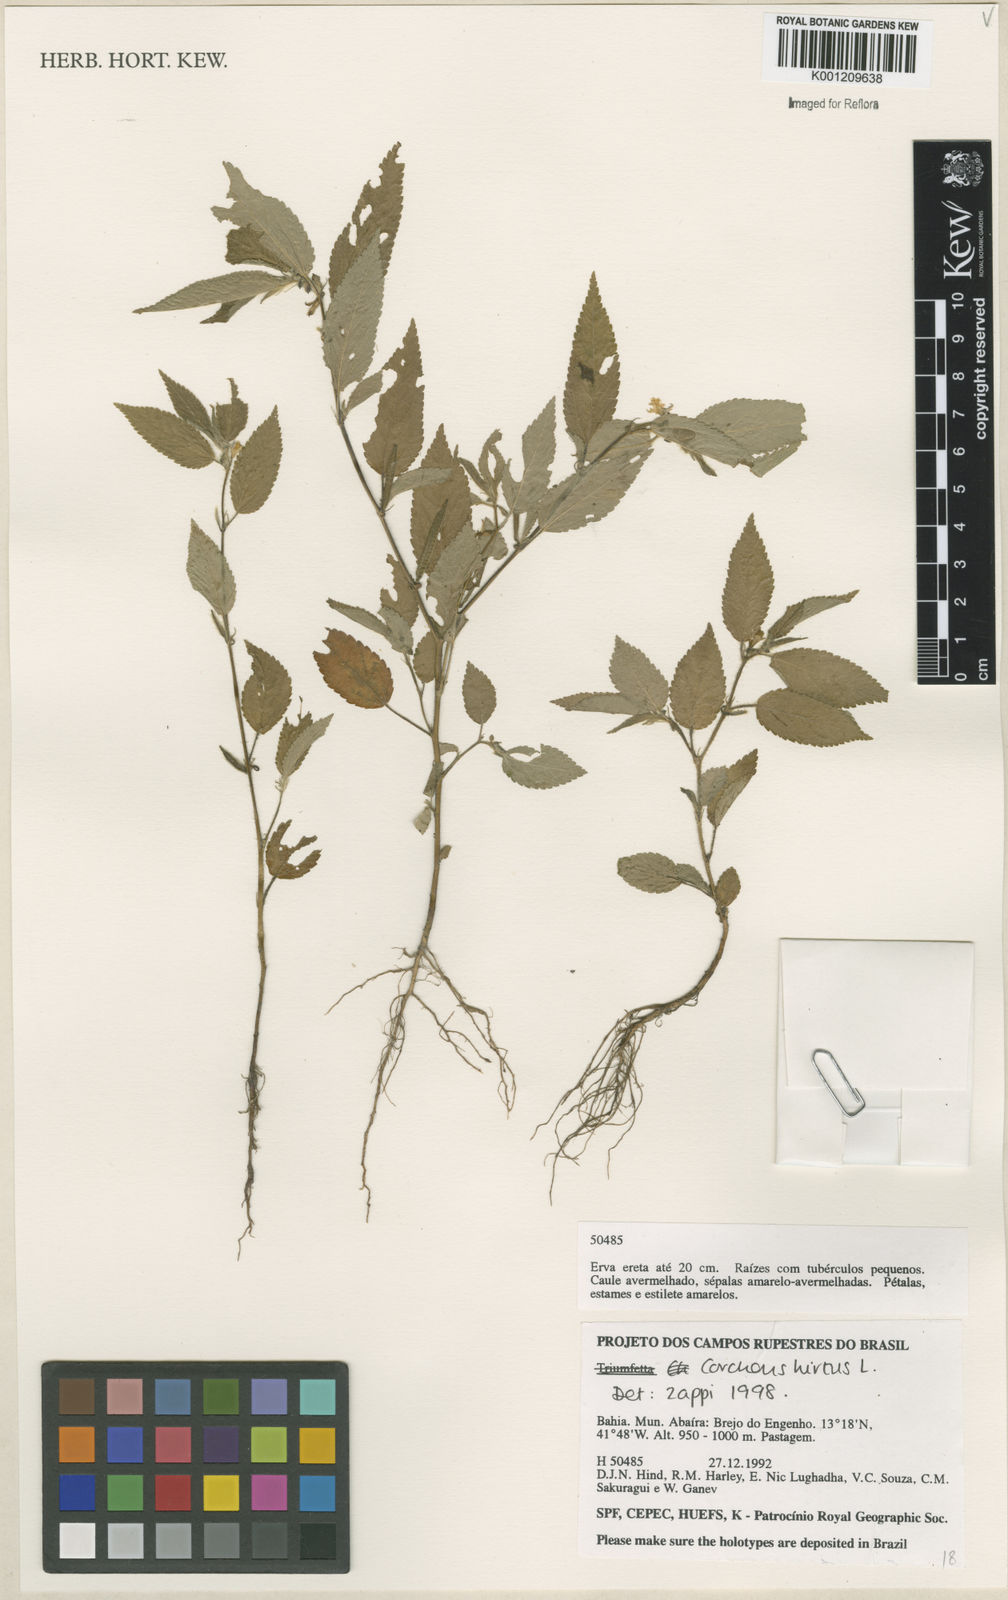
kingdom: Plantae
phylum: Tracheophyta
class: Magnoliopsida
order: Malvales
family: Malvaceae
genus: Corchorus
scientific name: Corchorus hirtus
